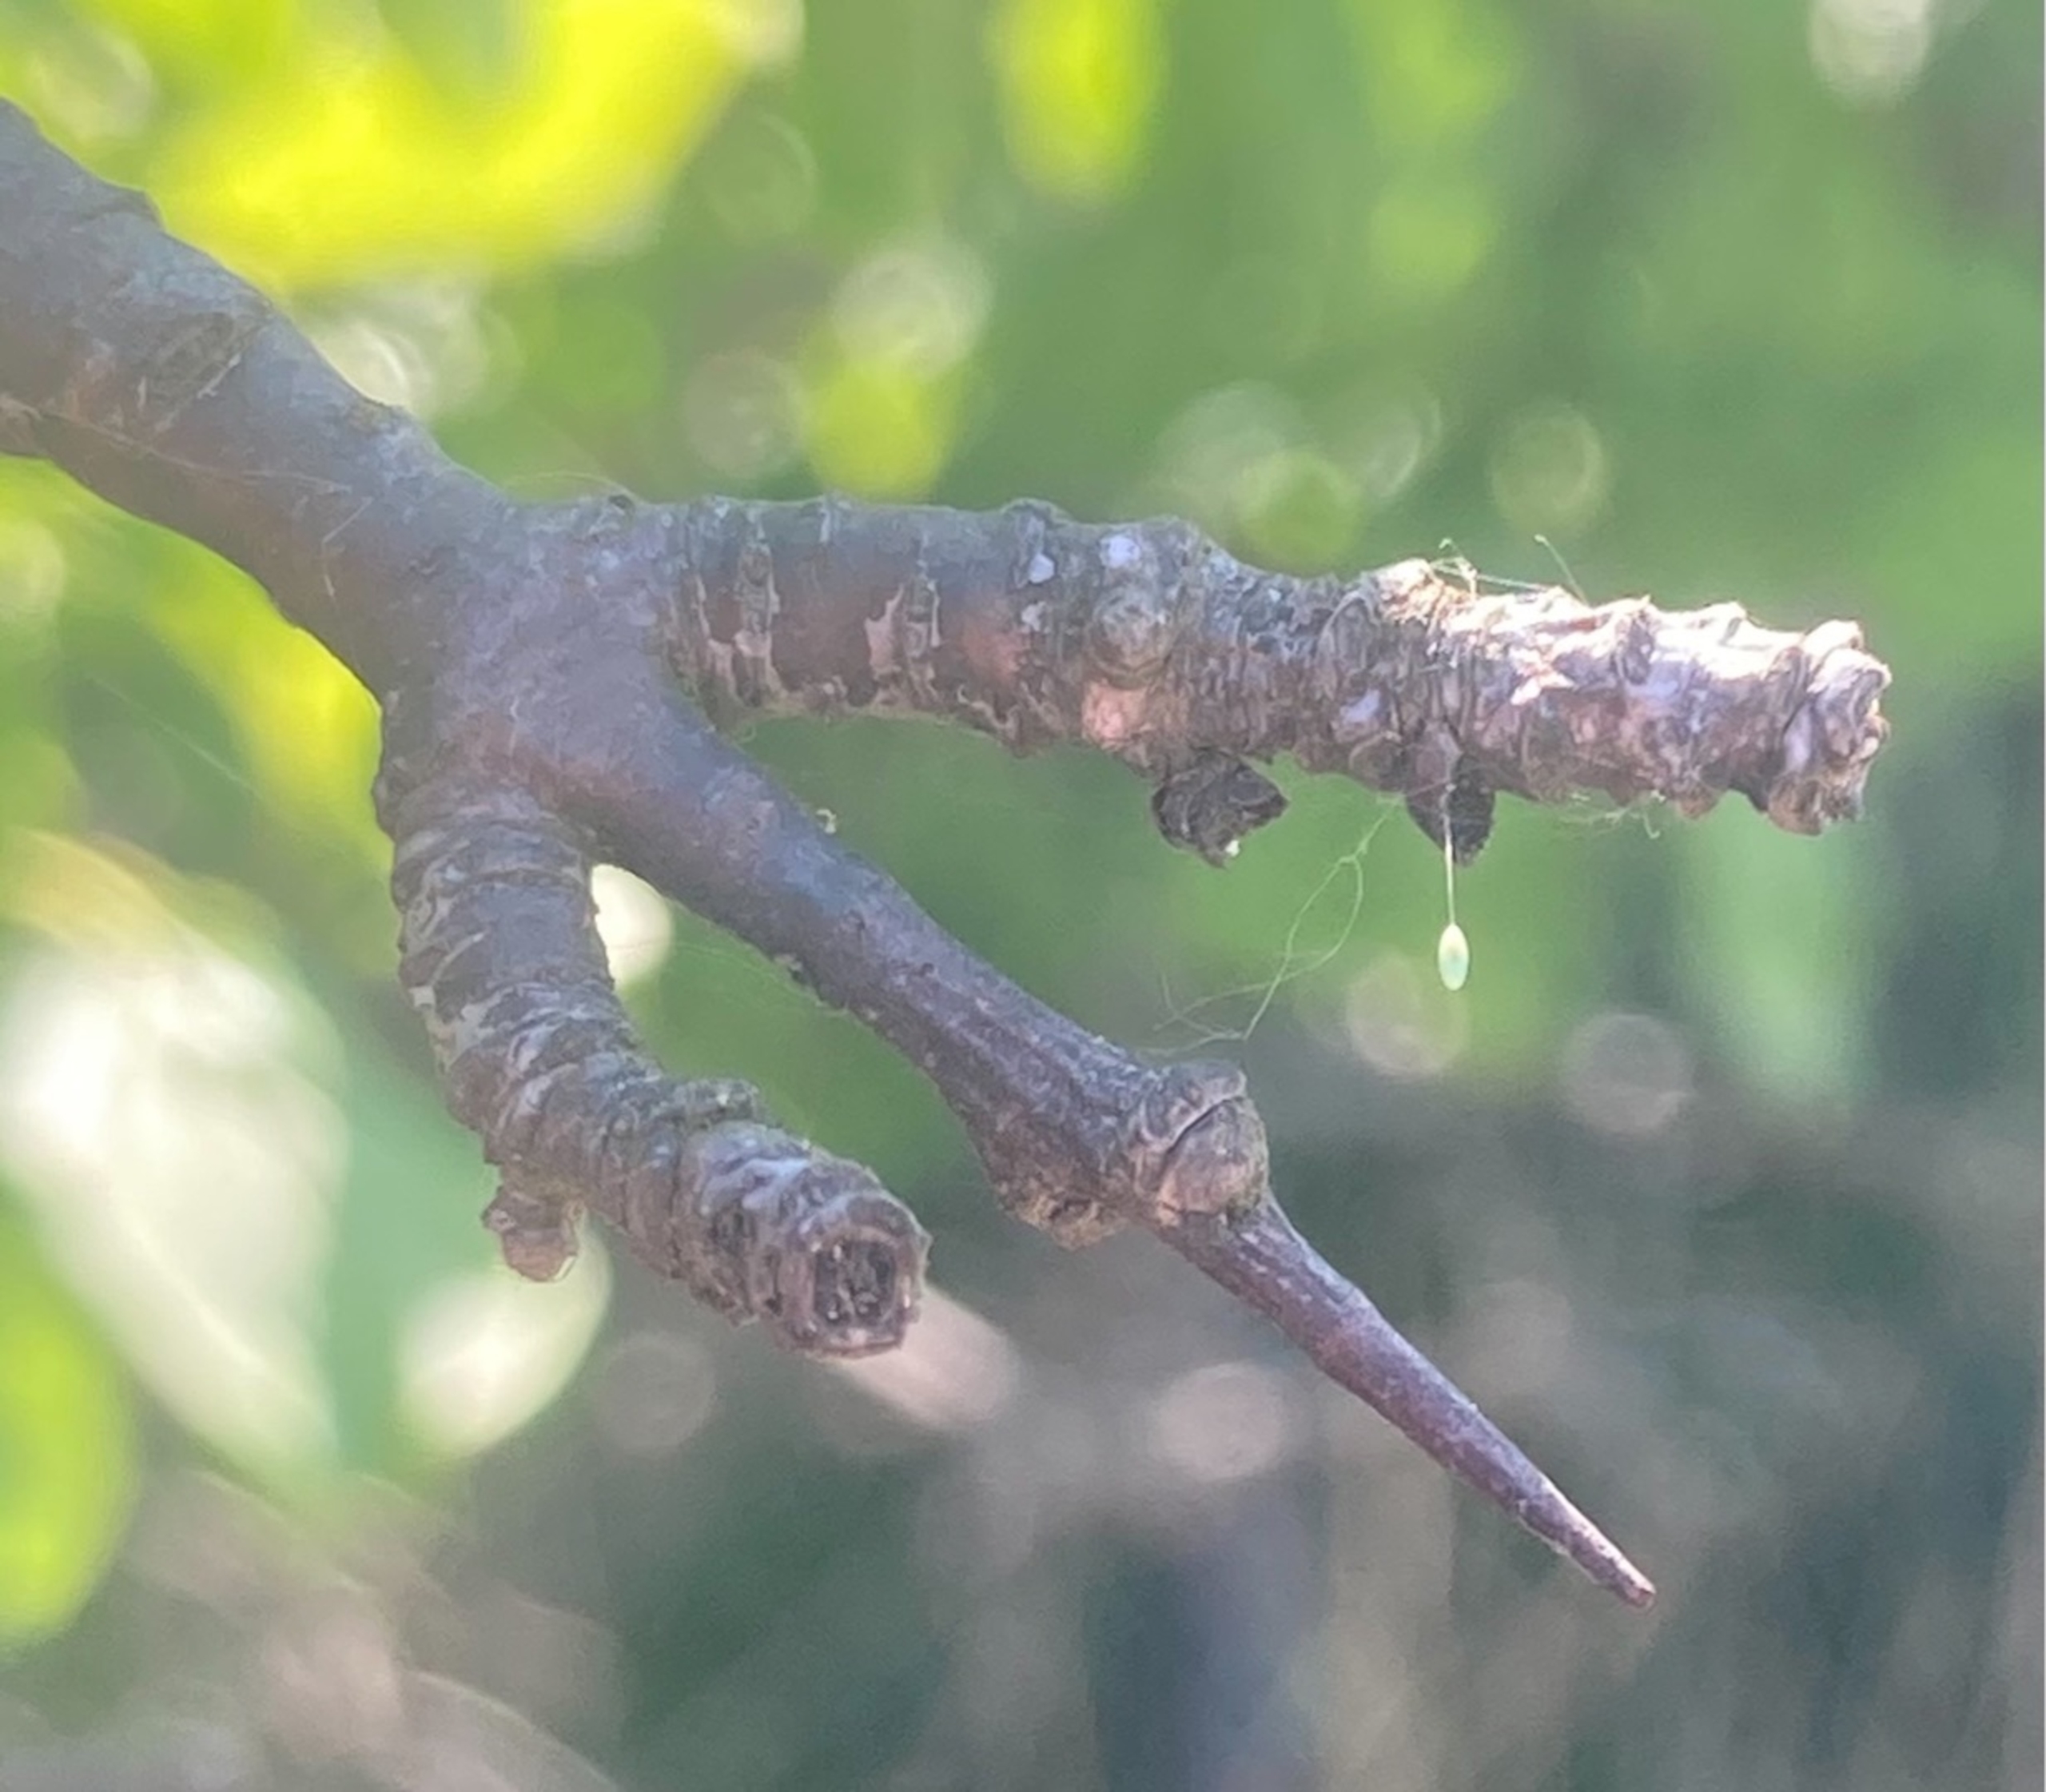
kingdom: Plantae
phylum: Tracheophyta
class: Magnoliopsida
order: Rosales
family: Rhamnaceae
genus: Rhamnus
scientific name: Rhamnus cathartica
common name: Vrietorn
